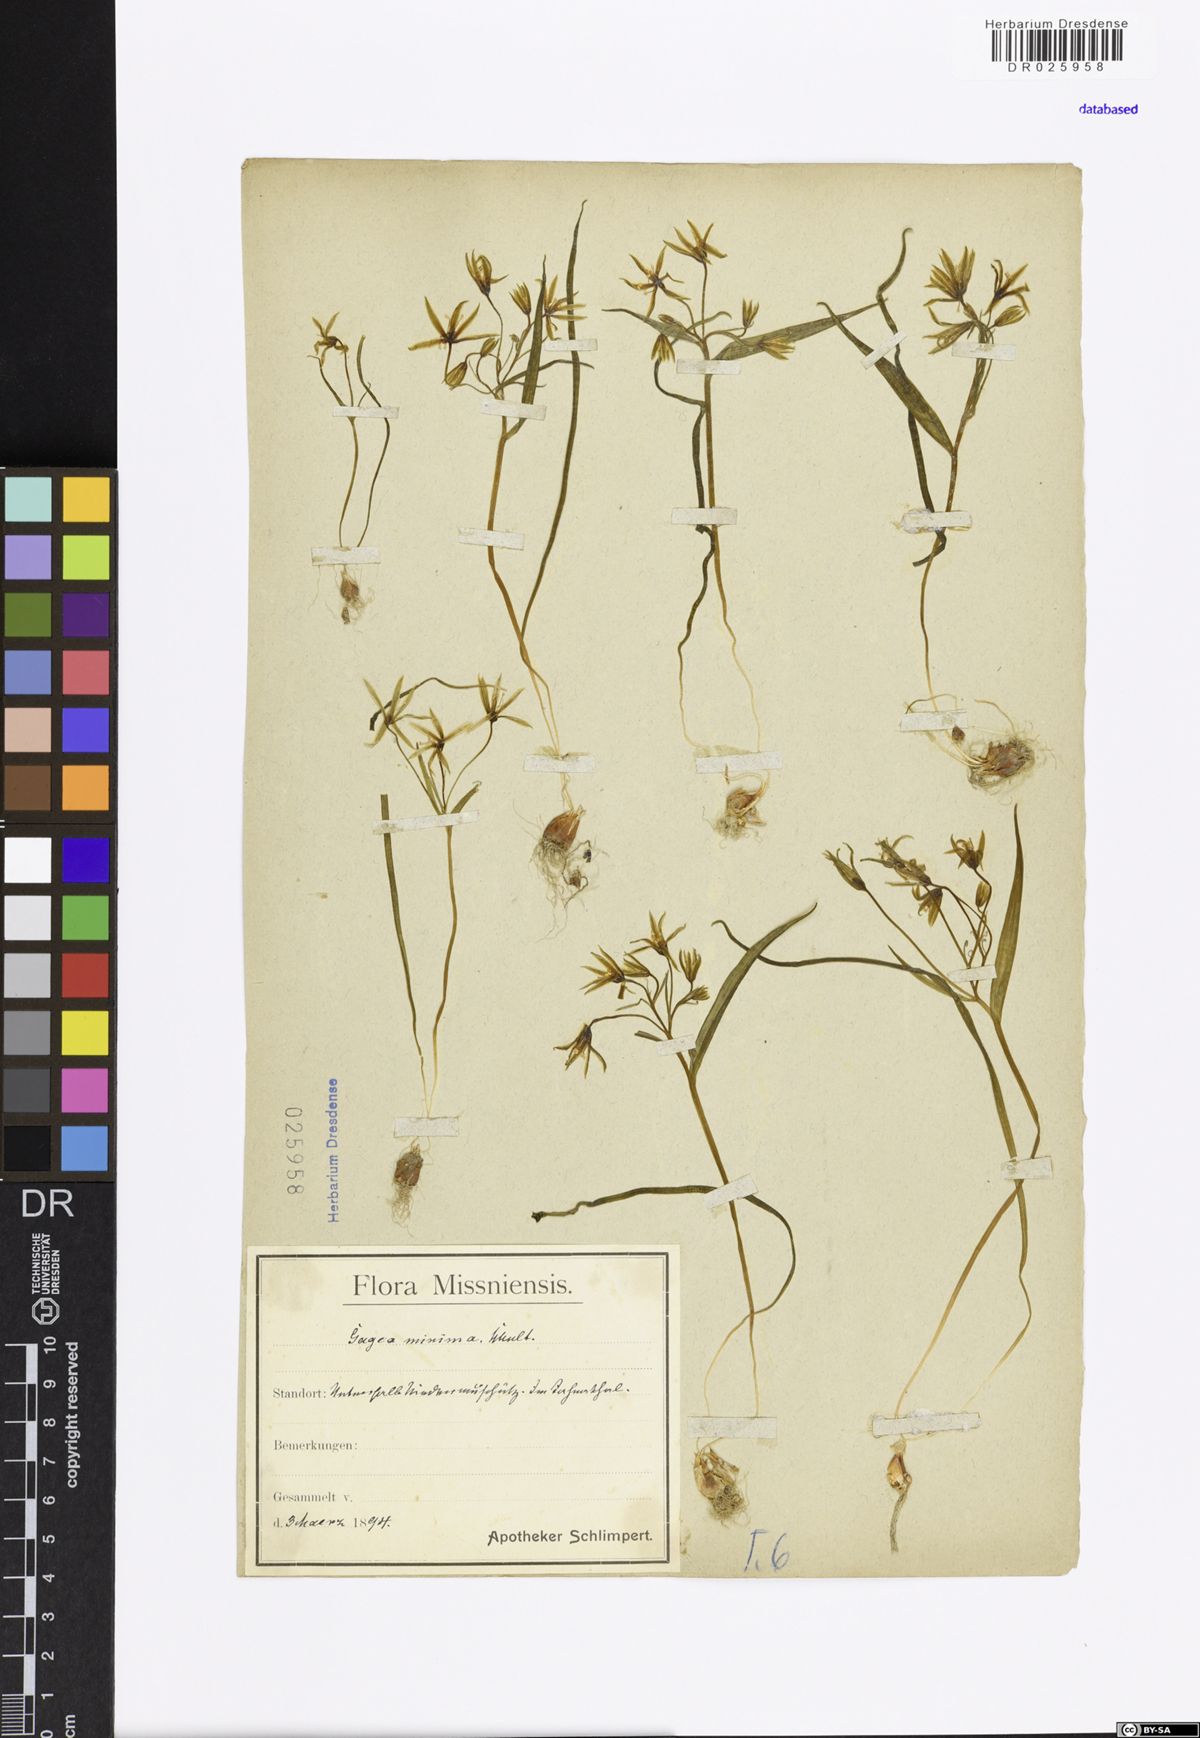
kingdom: Plantae
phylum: Tracheophyta
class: Liliopsida
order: Liliales
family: Liliaceae
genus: Gagea
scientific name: Gagea minima
